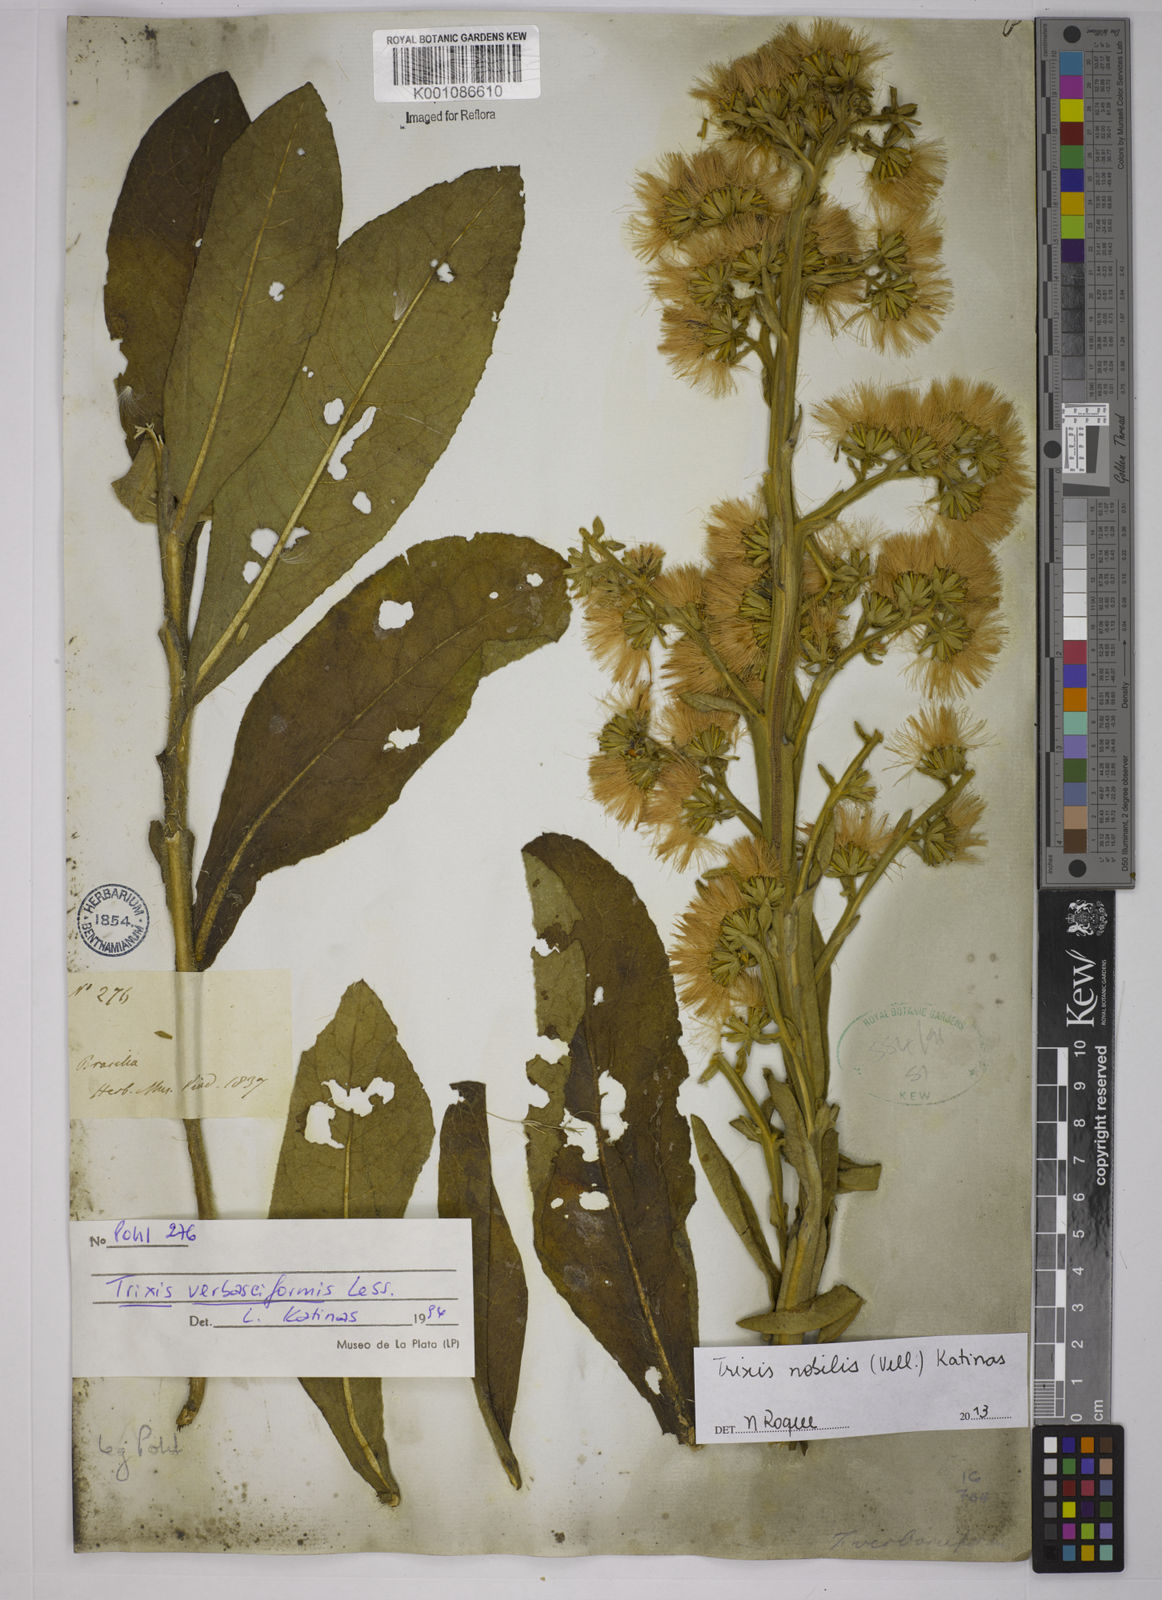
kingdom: Plantae
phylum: Tracheophyta
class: Magnoliopsida
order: Asterales
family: Asteraceae
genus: Trixis
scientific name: Trixis nobilis
